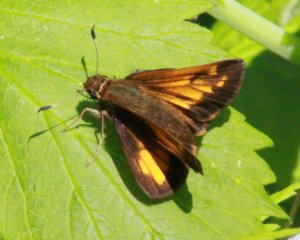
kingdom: Animalia
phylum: Arthropoda
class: Insecta
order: Lepidoptera
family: Hesperiidae
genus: Lon
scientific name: Lon hobomok
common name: Hobomok Skipper
